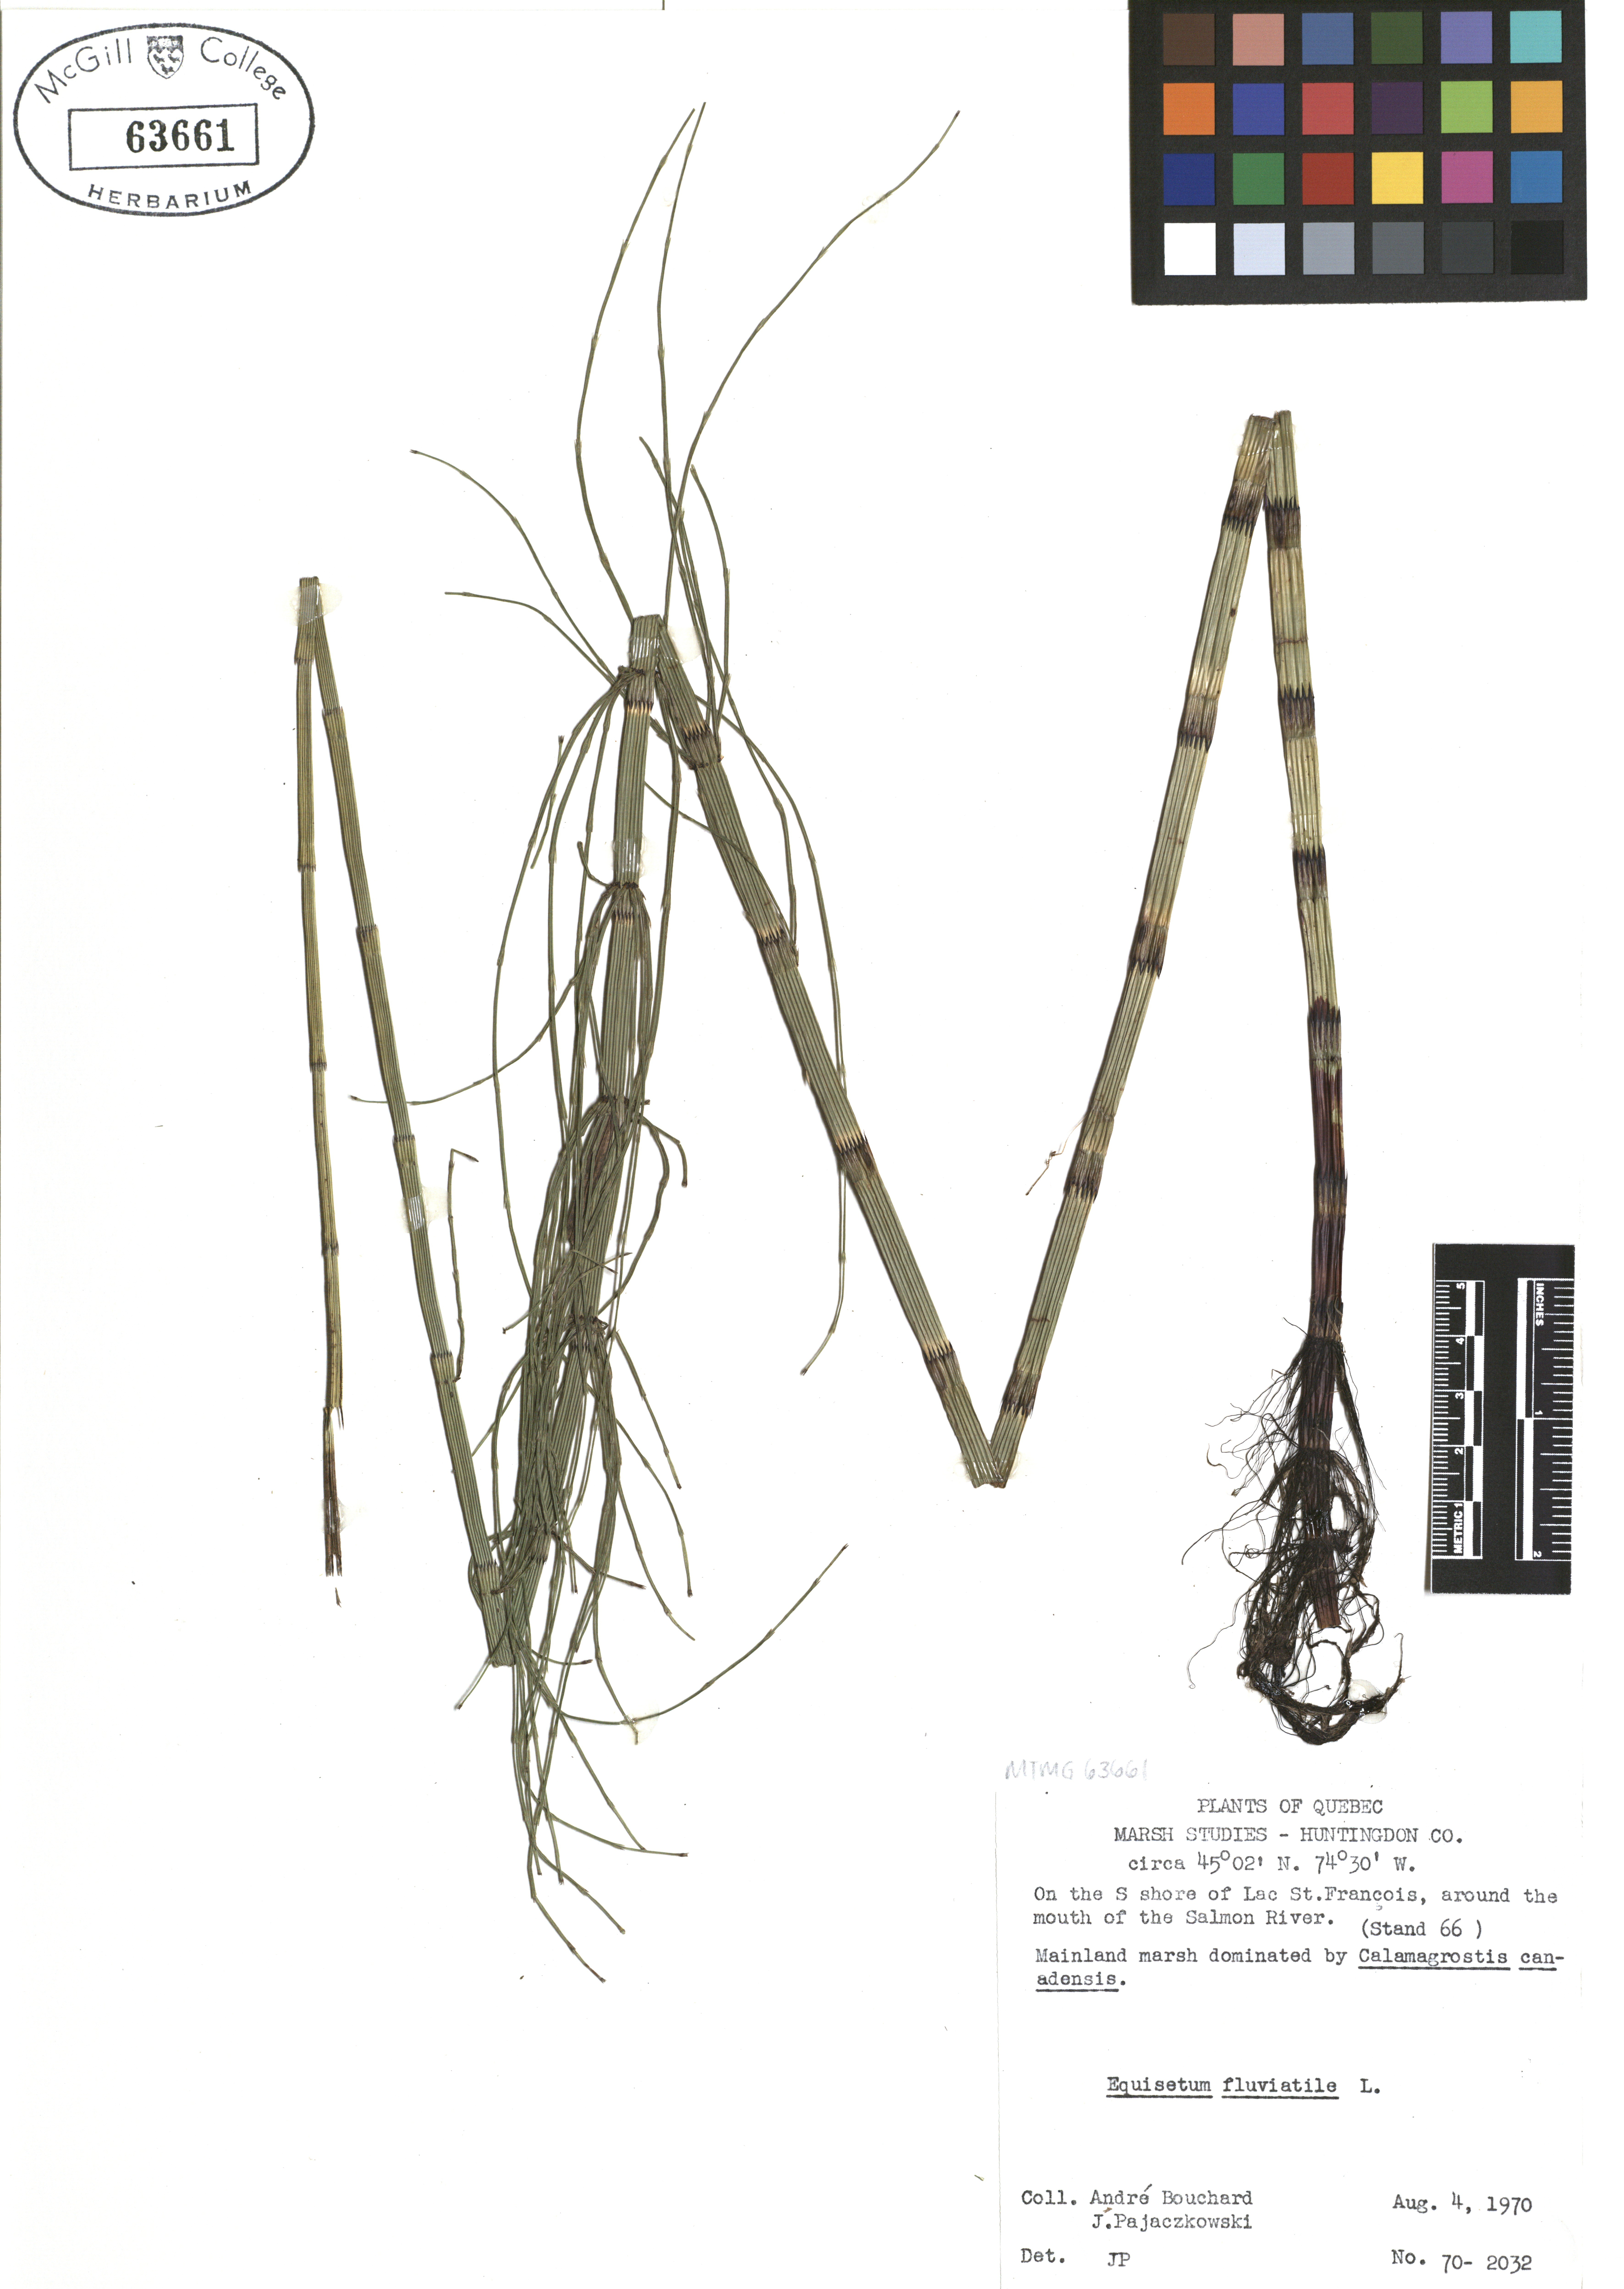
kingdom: Plantae
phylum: Tracheophyta
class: Polypodiopsida
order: Equisetales
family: Equisetaceae
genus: Equisetum
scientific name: Equisetum fluviatile
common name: Water horsetail
